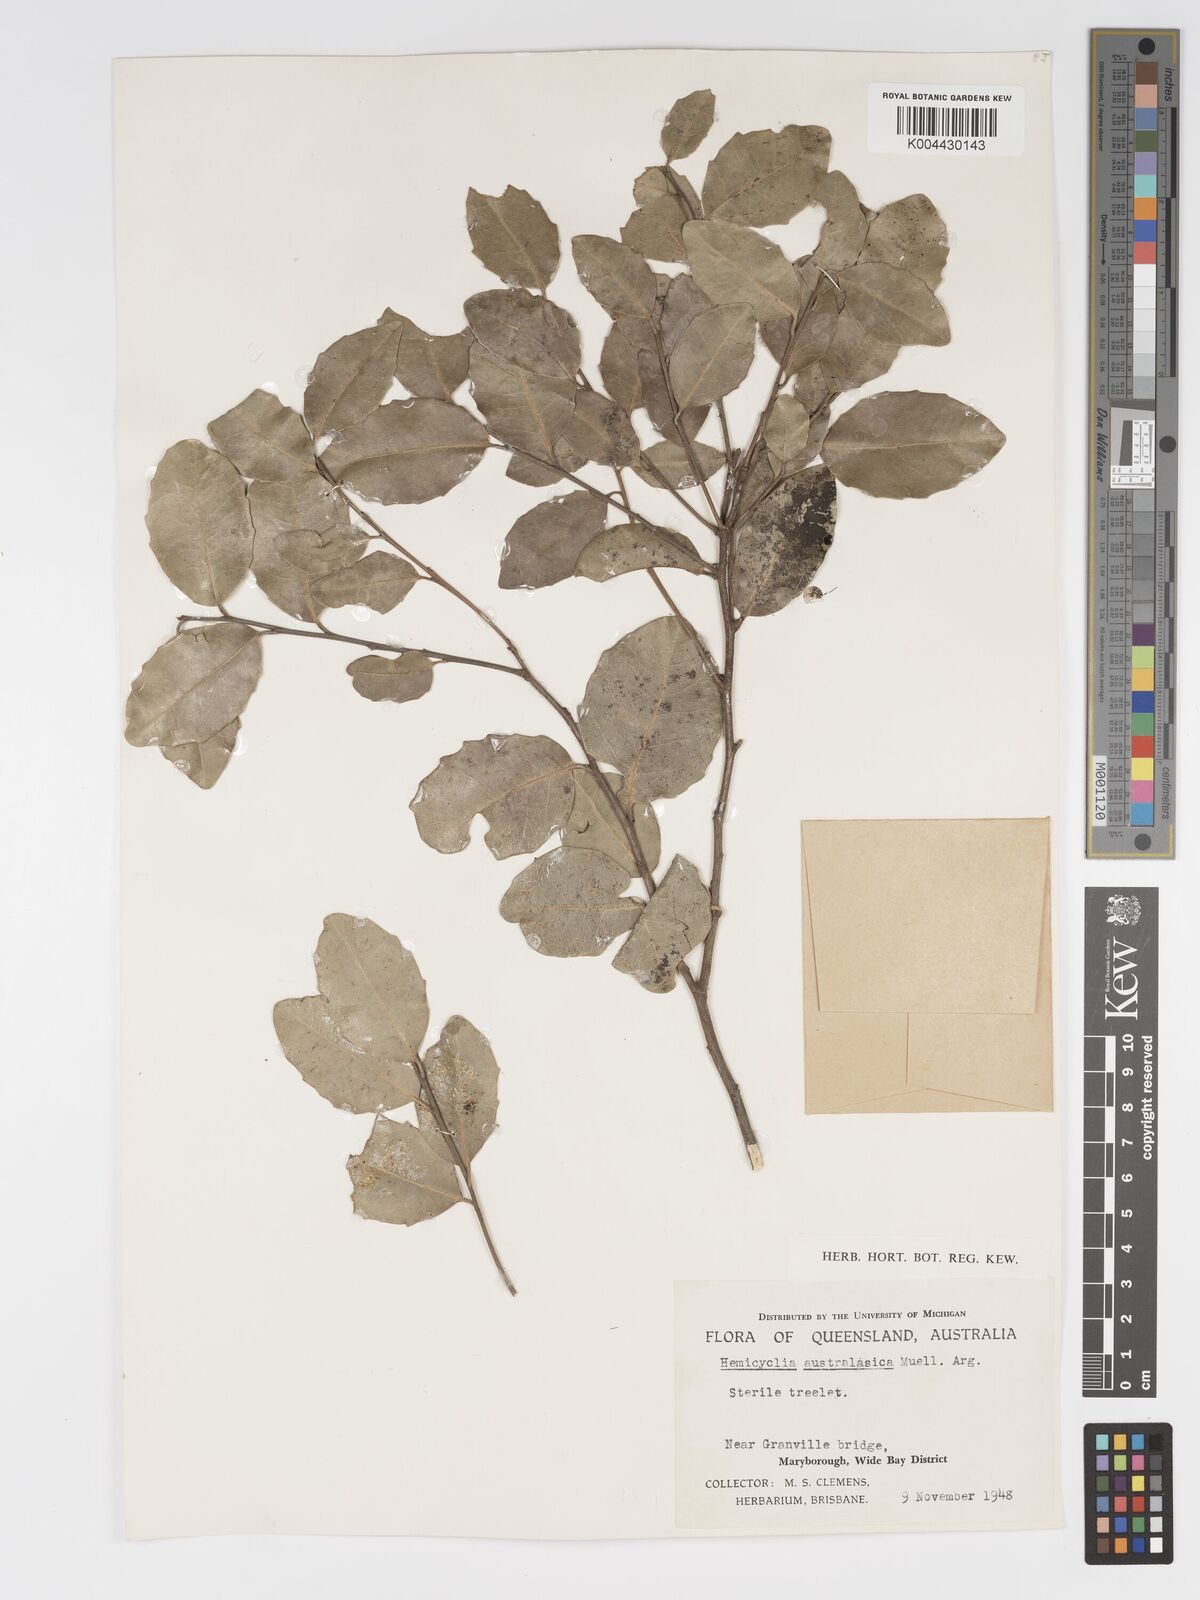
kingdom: Plantae
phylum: Tracheophyta
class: Magnoliopsida
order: Malpighiales
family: Putranjivaceae
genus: Drypetes
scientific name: Drypetes deplanchei
